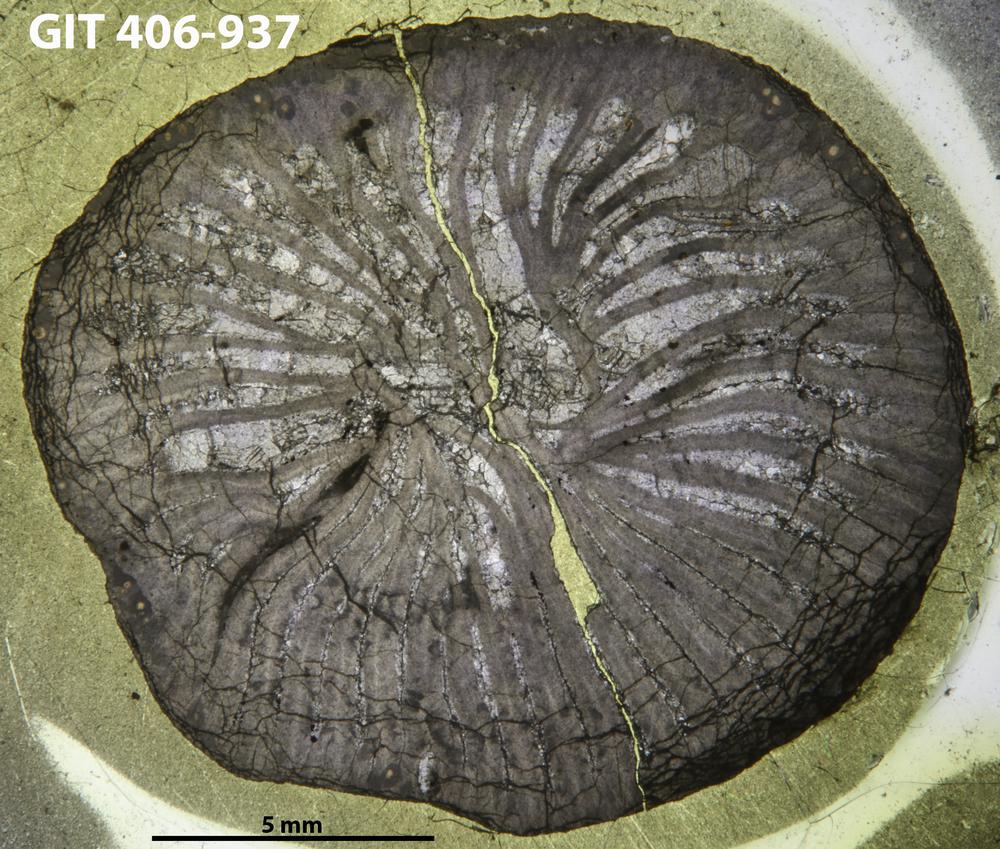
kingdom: Animalia
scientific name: Animalia
